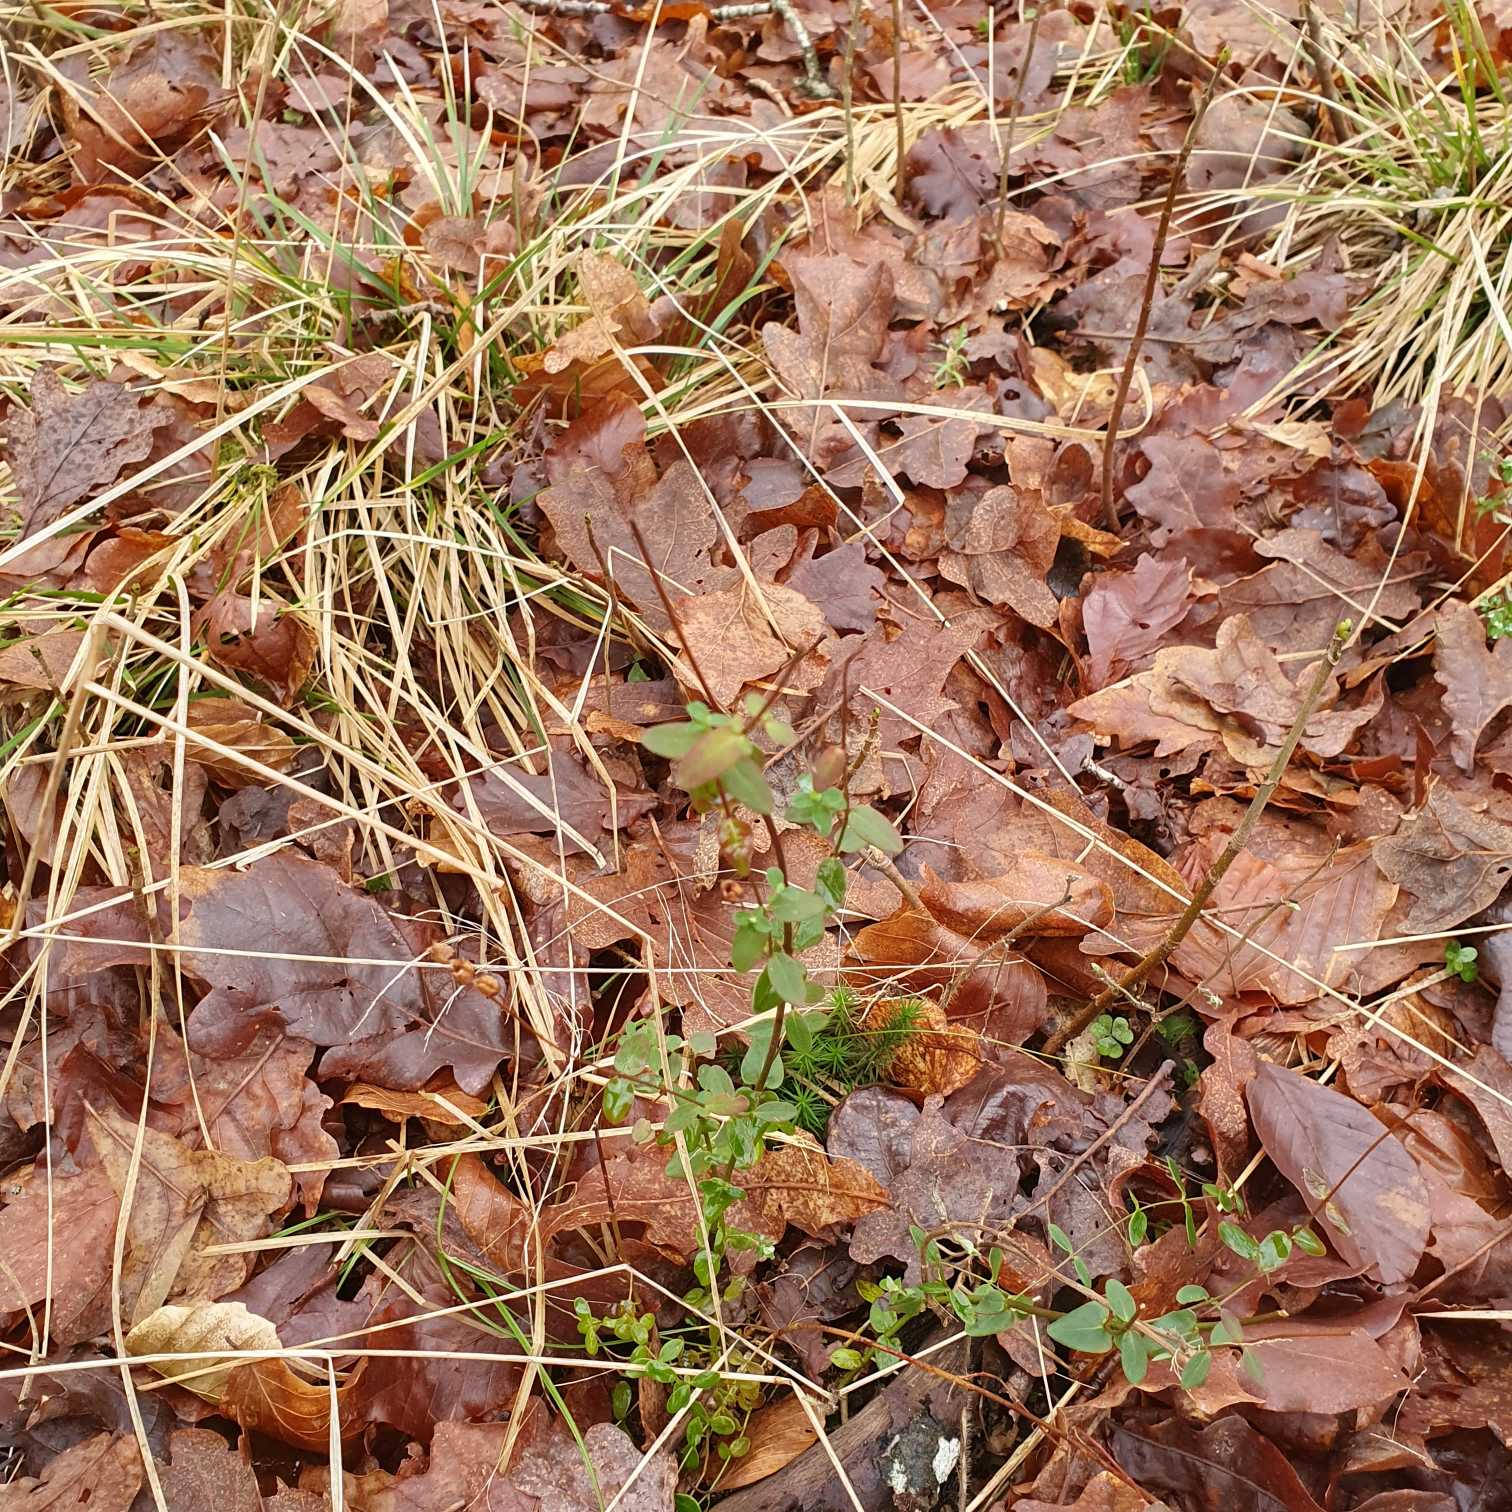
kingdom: Plantae
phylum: Tracheophyta
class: Magnoliopsida
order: Malpighiales
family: Hypericaceae
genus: Hypericum
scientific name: Hypericum pulchrum
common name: Smuk perikon
